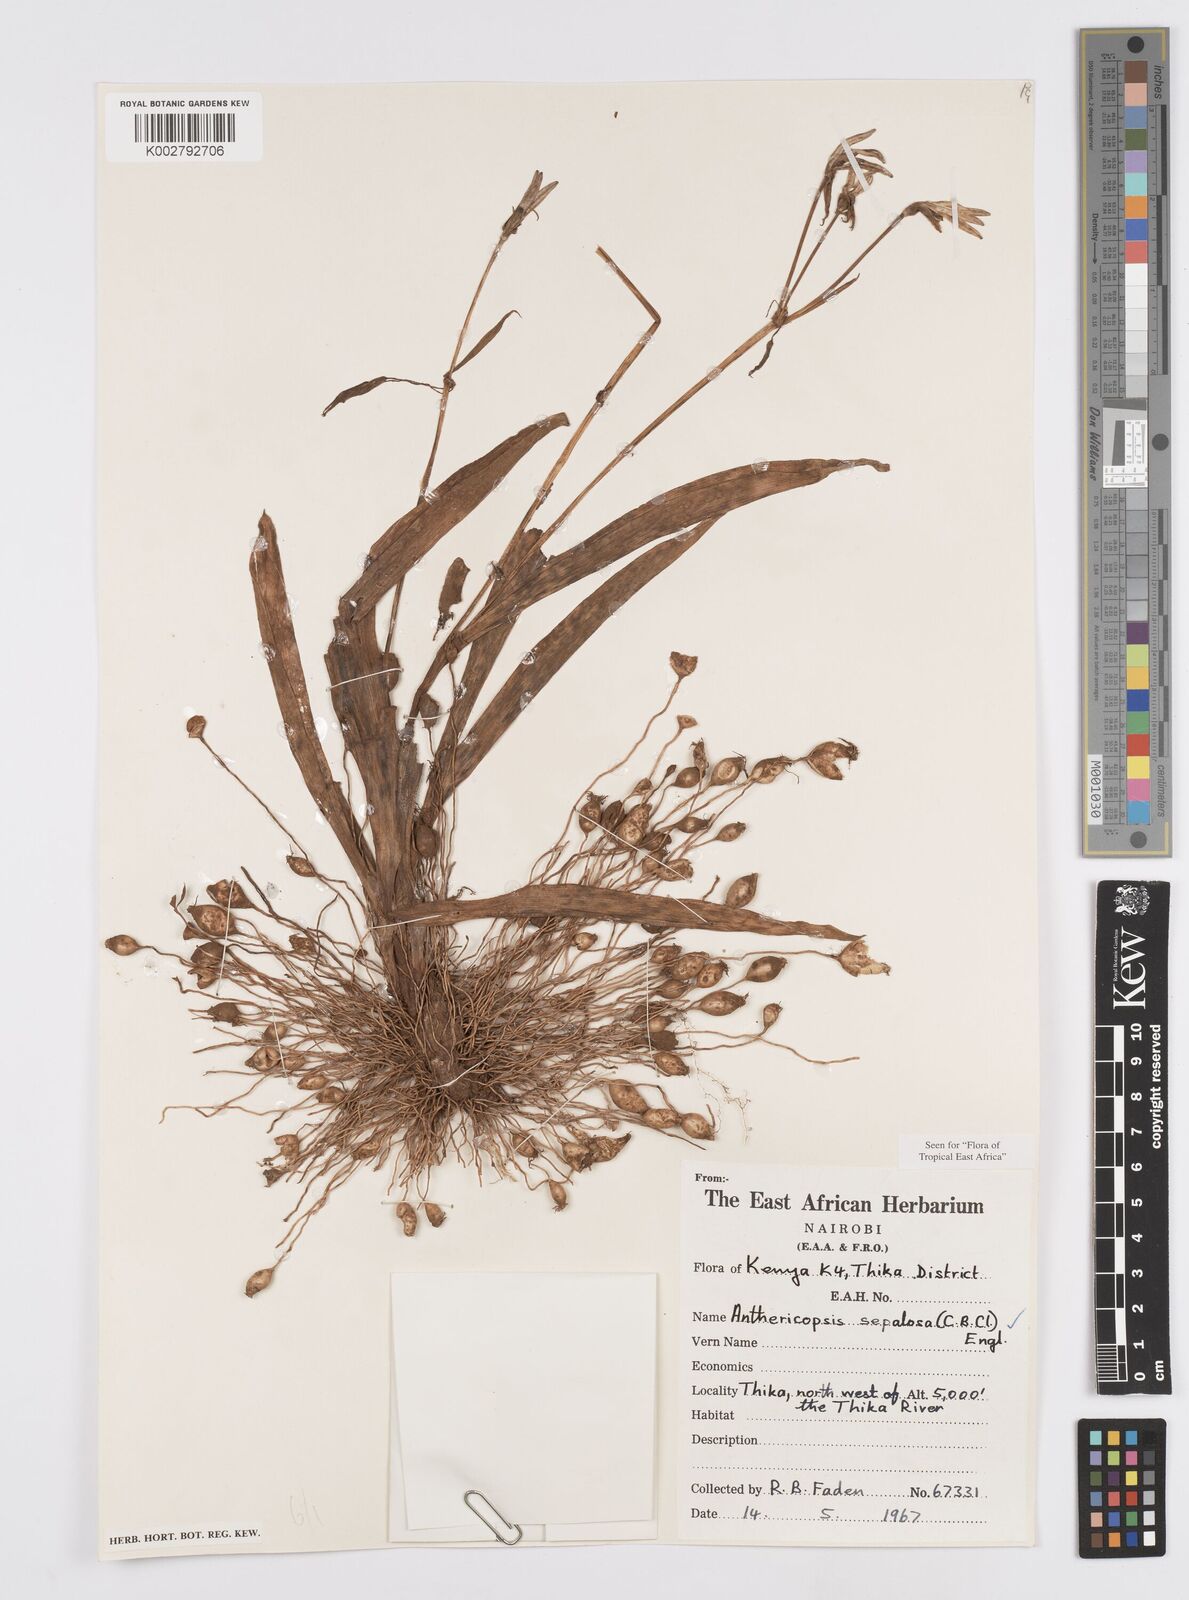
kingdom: Plantae
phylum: Tracheophyta
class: Liliopsida
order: Commelinales
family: Commelinaceae
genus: Anthericopsis
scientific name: Anthericopsis sepalosa
